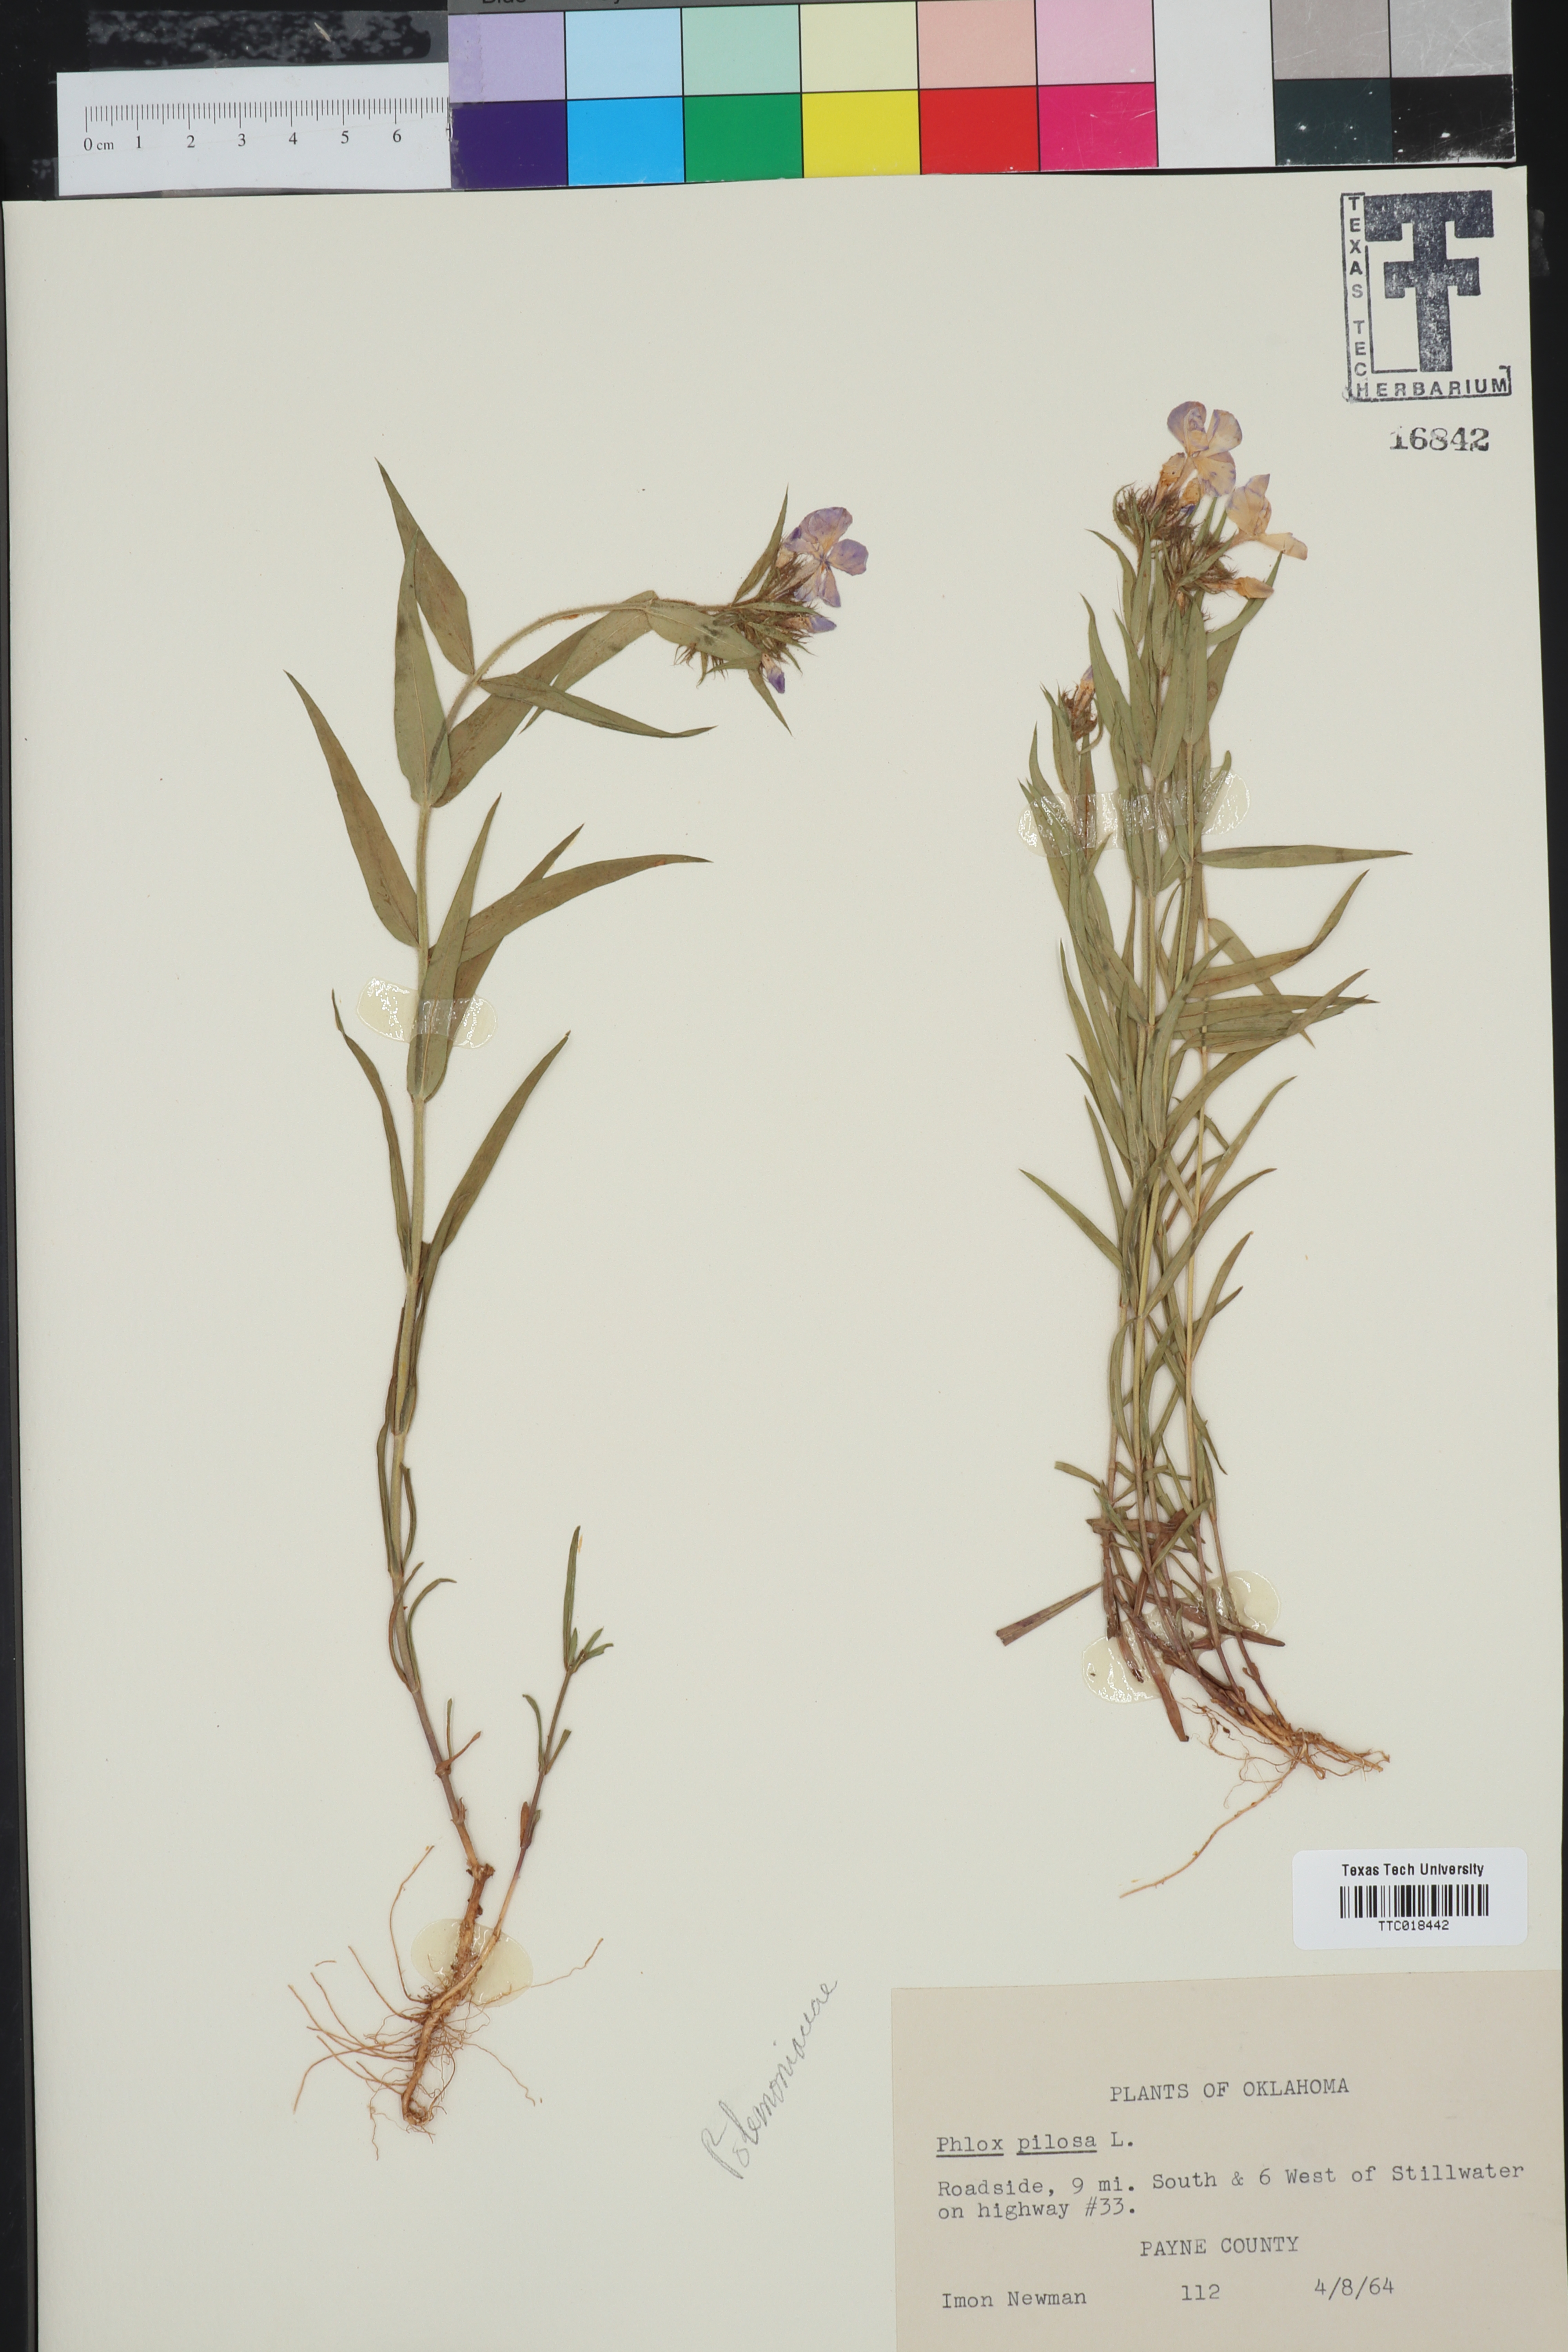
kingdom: Plantae
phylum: Tracheophyta
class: Magnoliopsida
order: Ericales
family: Polemoniaceae
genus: Phlox
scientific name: Phlox pilosa
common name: Prairie phlox
